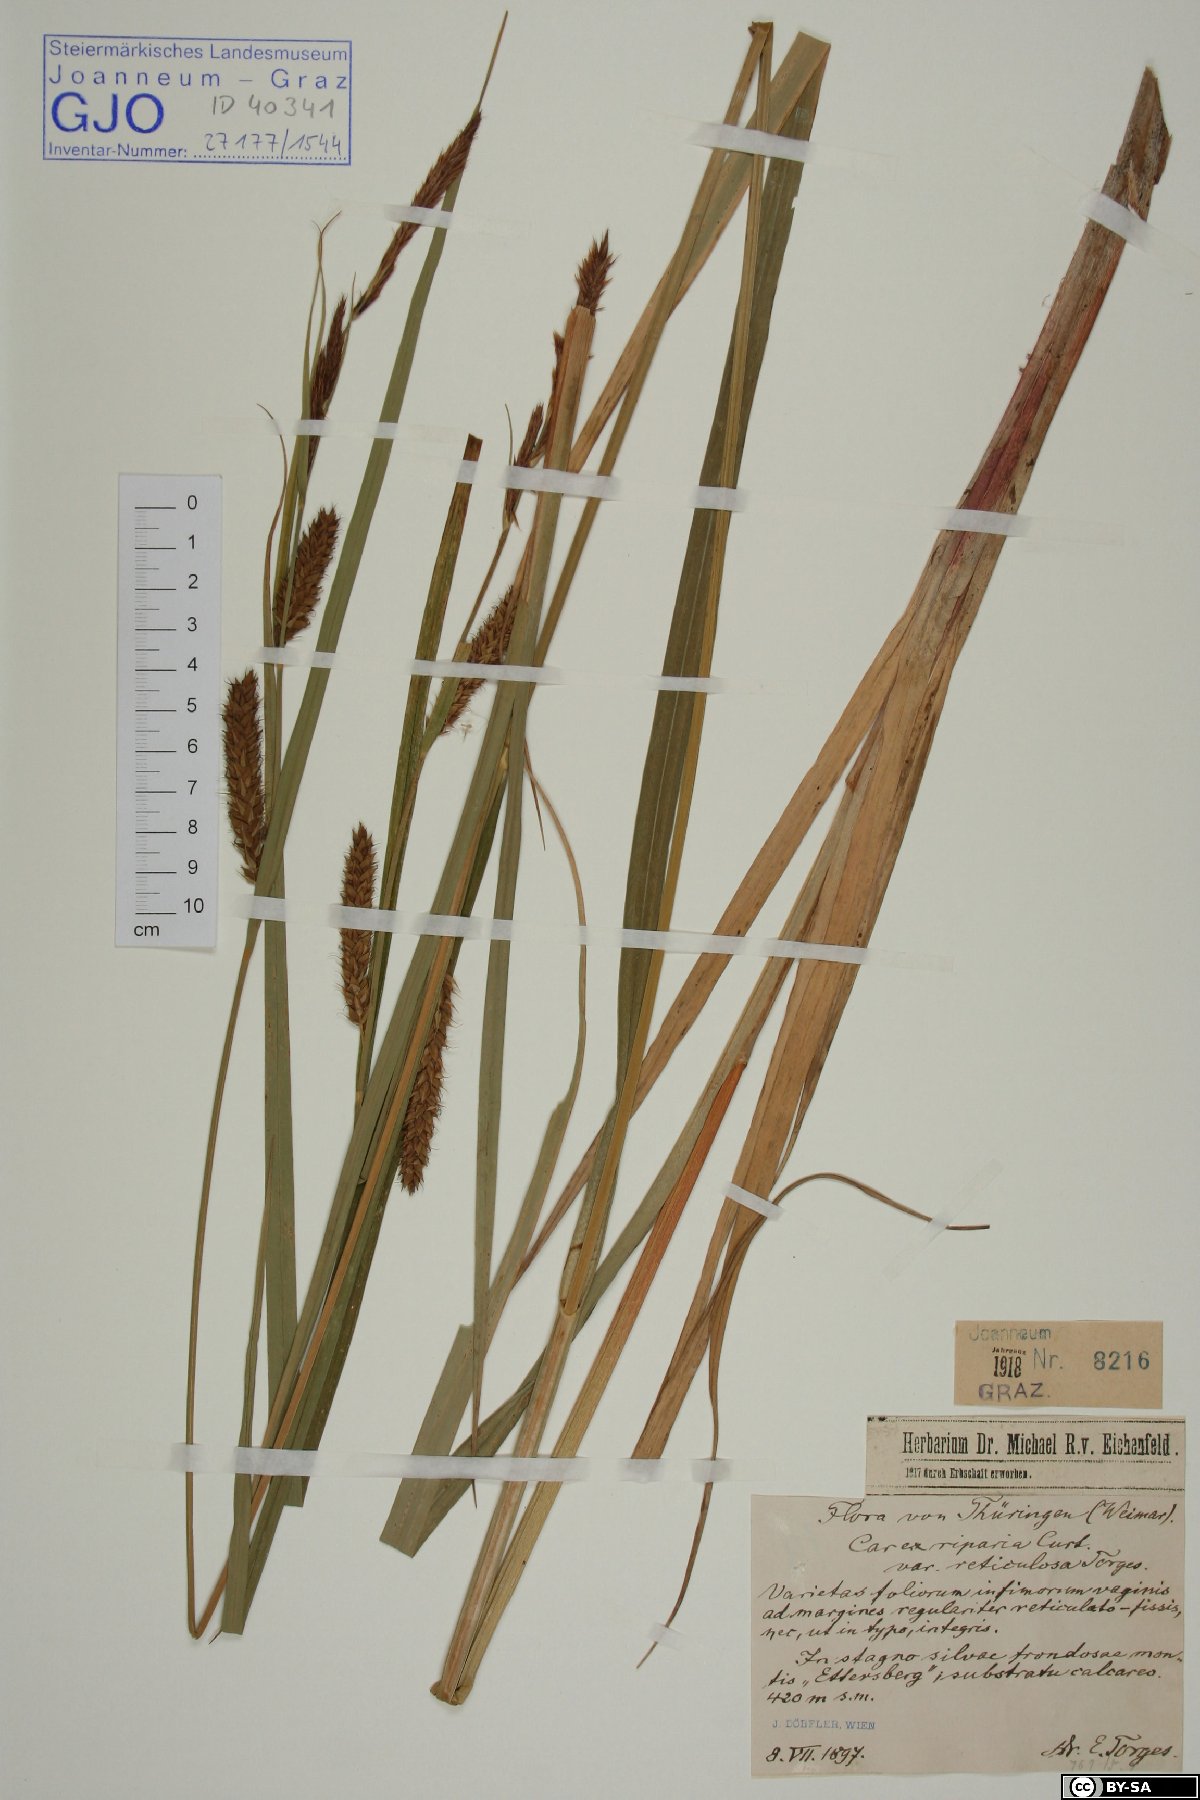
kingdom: Plantae
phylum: Tracheophyta
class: Liliopsida
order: Poales
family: Cyperaceae
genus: Carex
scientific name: Carex riparia
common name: Greater pond-sedge
